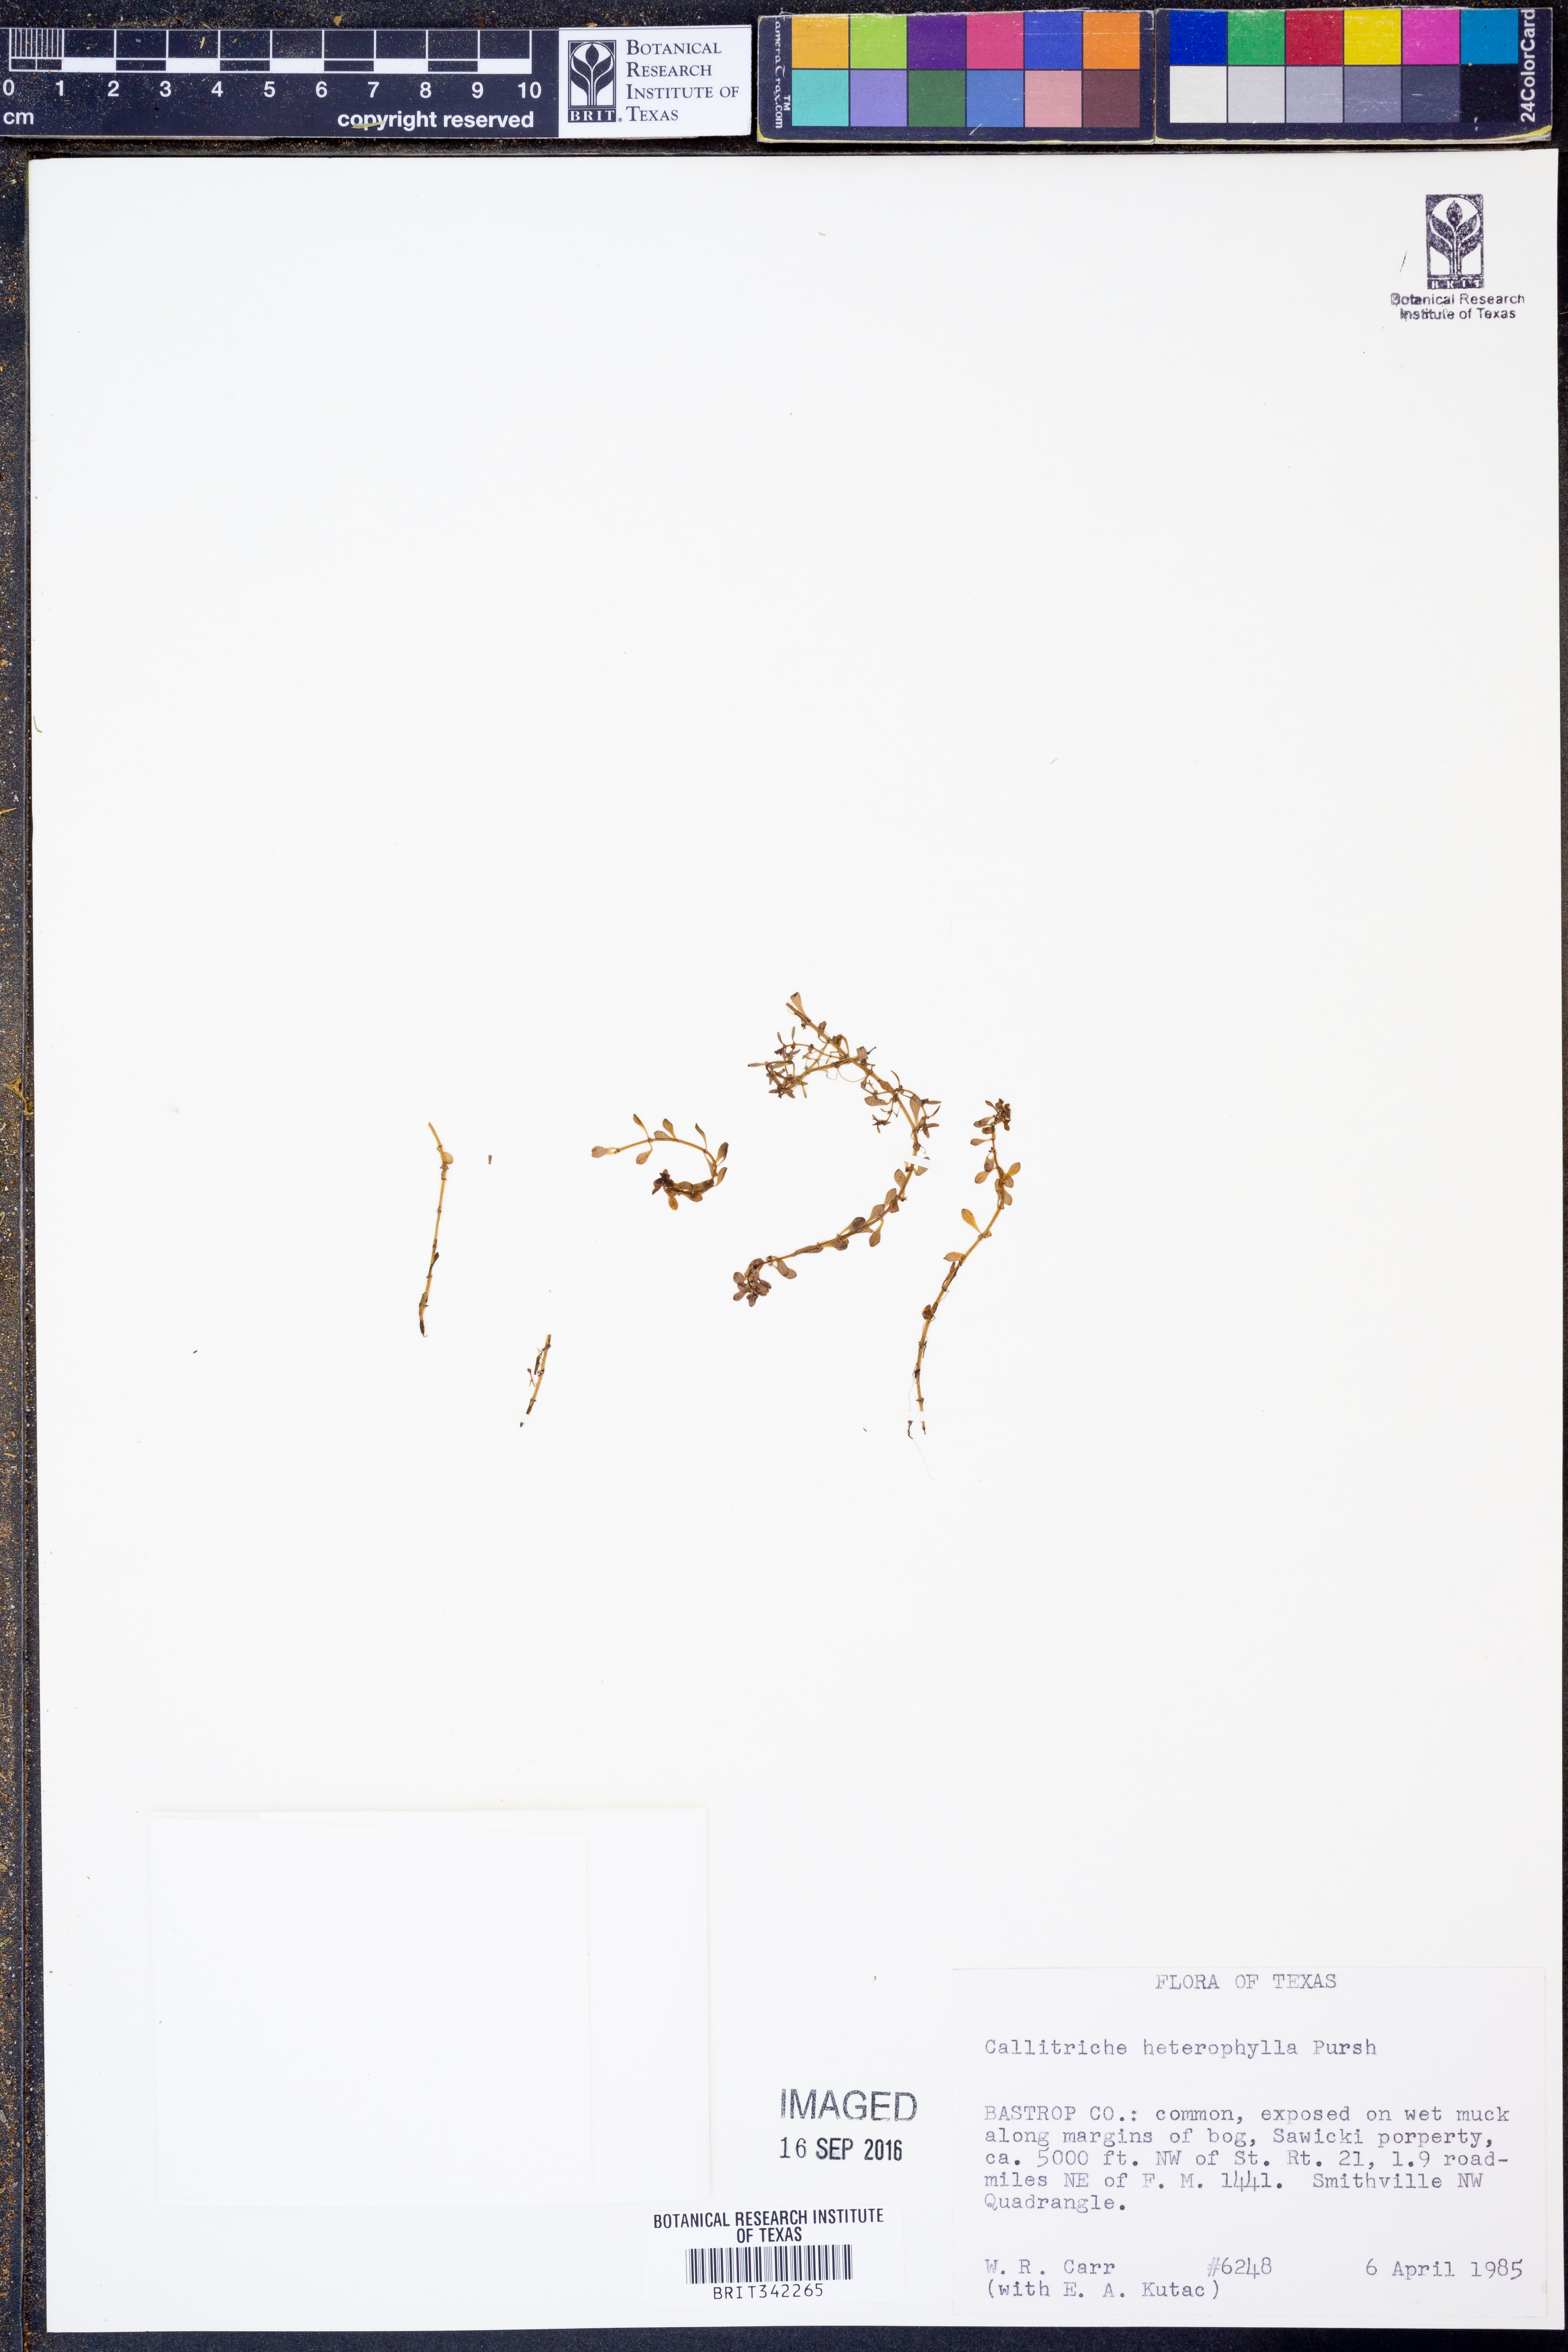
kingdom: Plantae
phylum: Tracheophyta
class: Magnoliopsida
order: Lamiales
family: Plantaginaceae
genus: Callitriche
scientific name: Callitriche heterophylla
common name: Two-headed water-starwort
